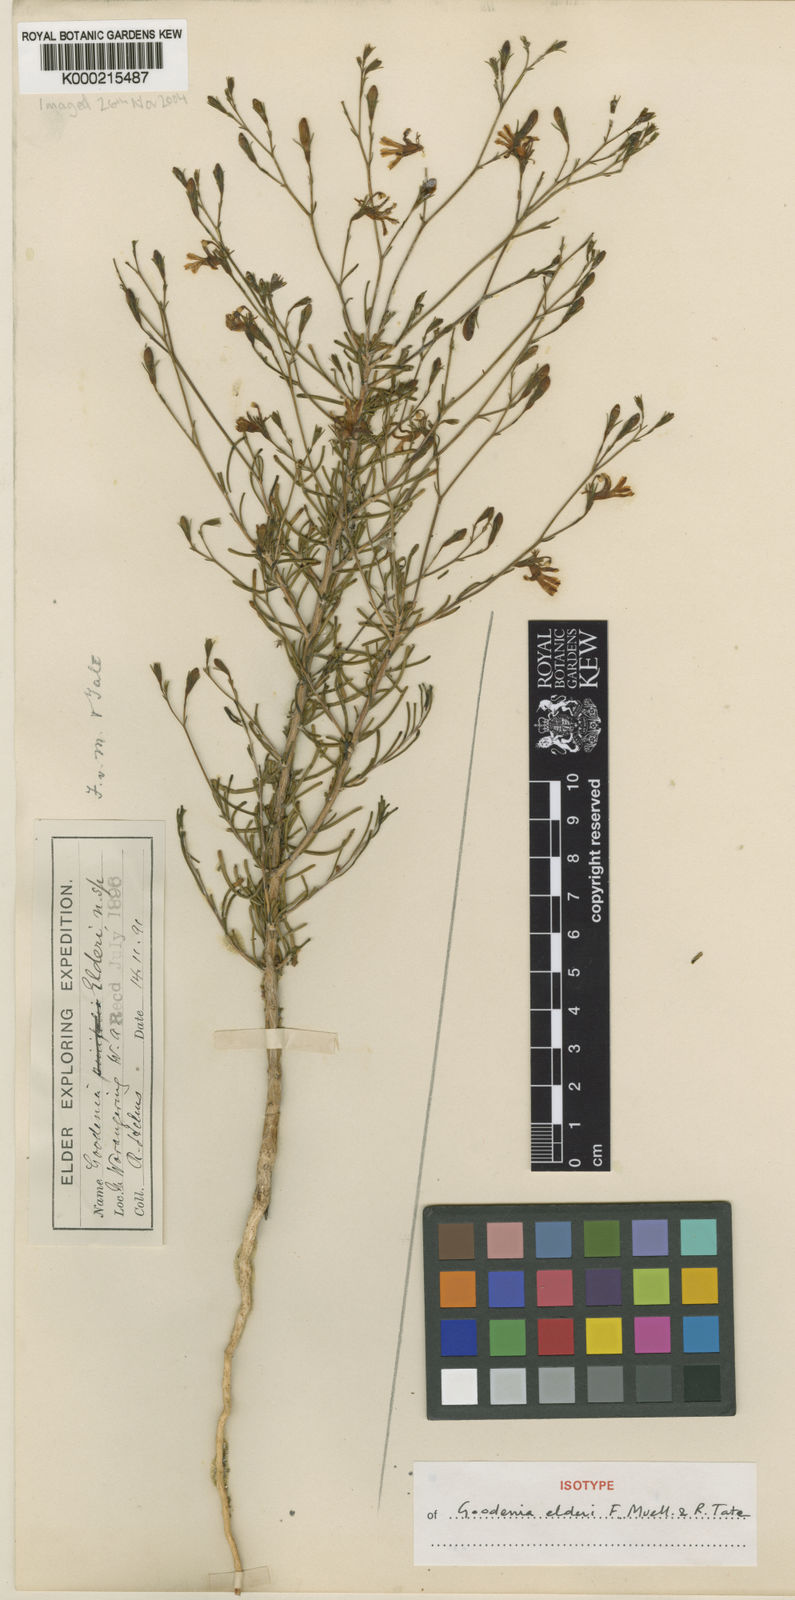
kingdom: Plantae
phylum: Tracheophyta
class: Magnoliopsida
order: Asterales
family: Goodeniaceae
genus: Goodenia
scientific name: Goodenia elderi
